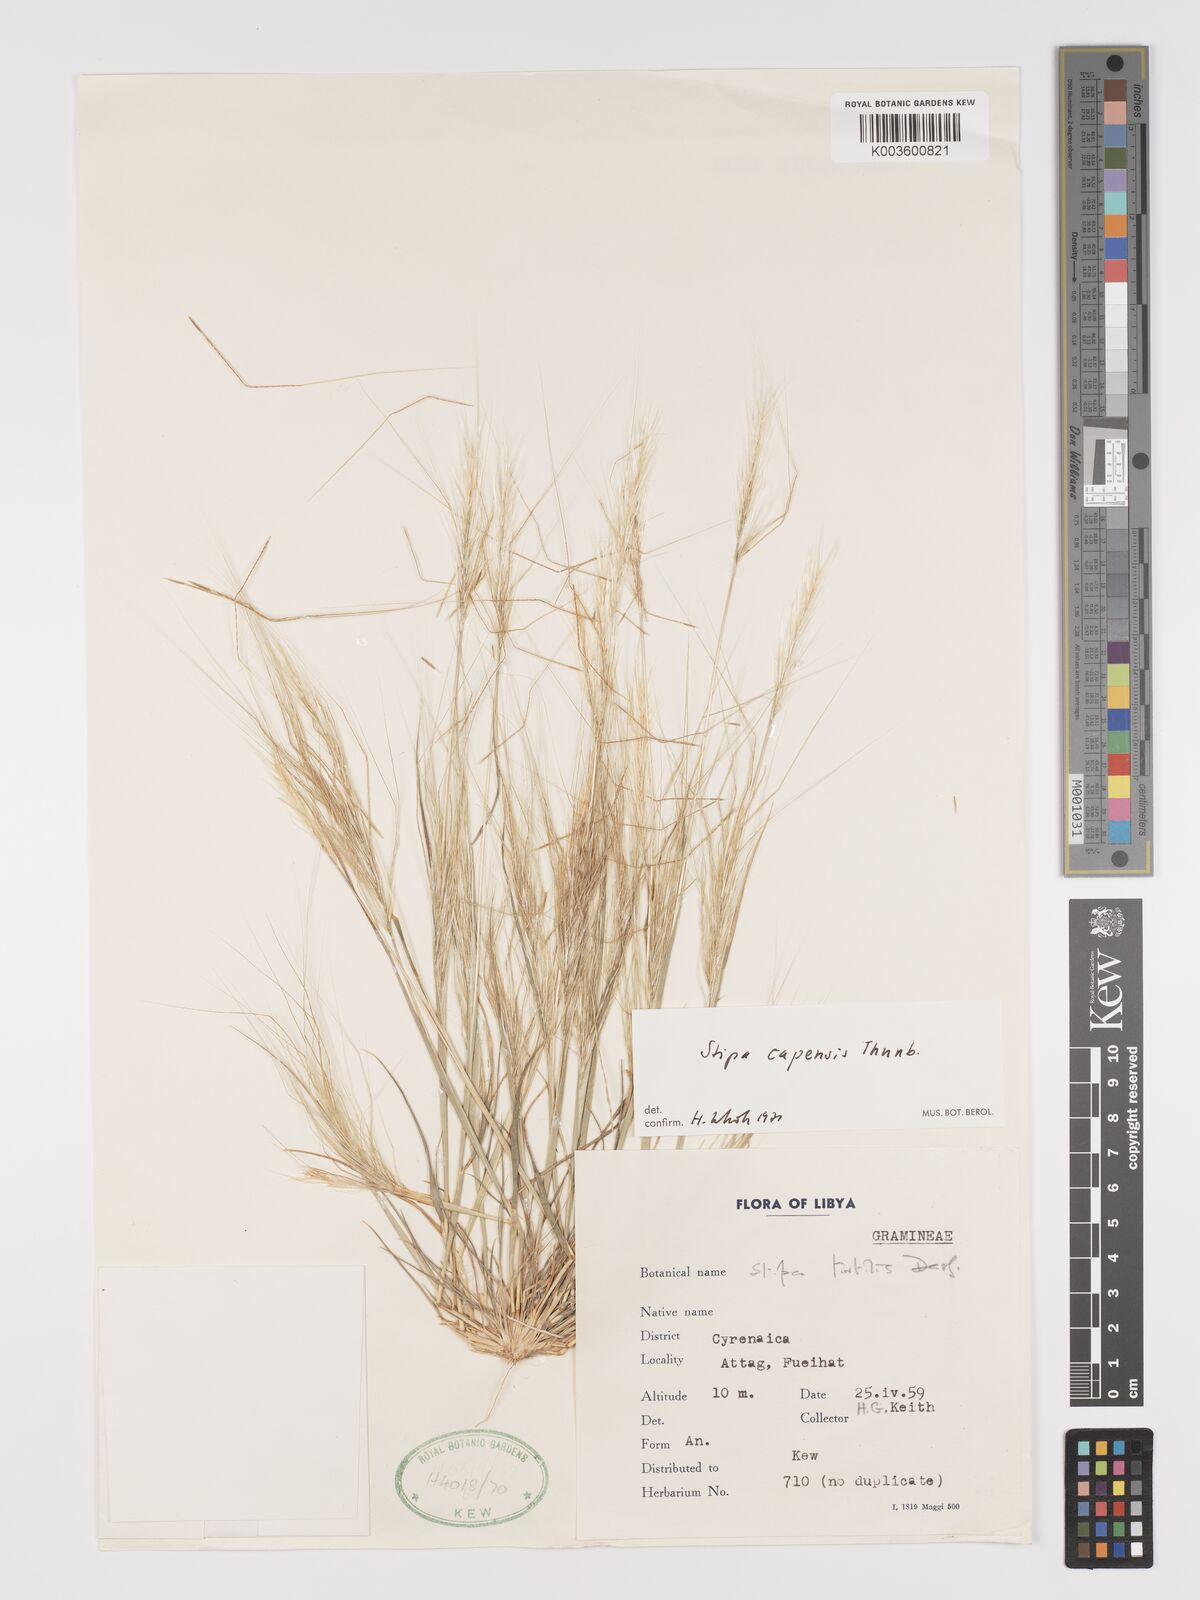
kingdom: Plantae
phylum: Tracheophyta
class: Liliopsida
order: Poales
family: Poaceae
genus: Stipellula
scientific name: Stipellula capensis
